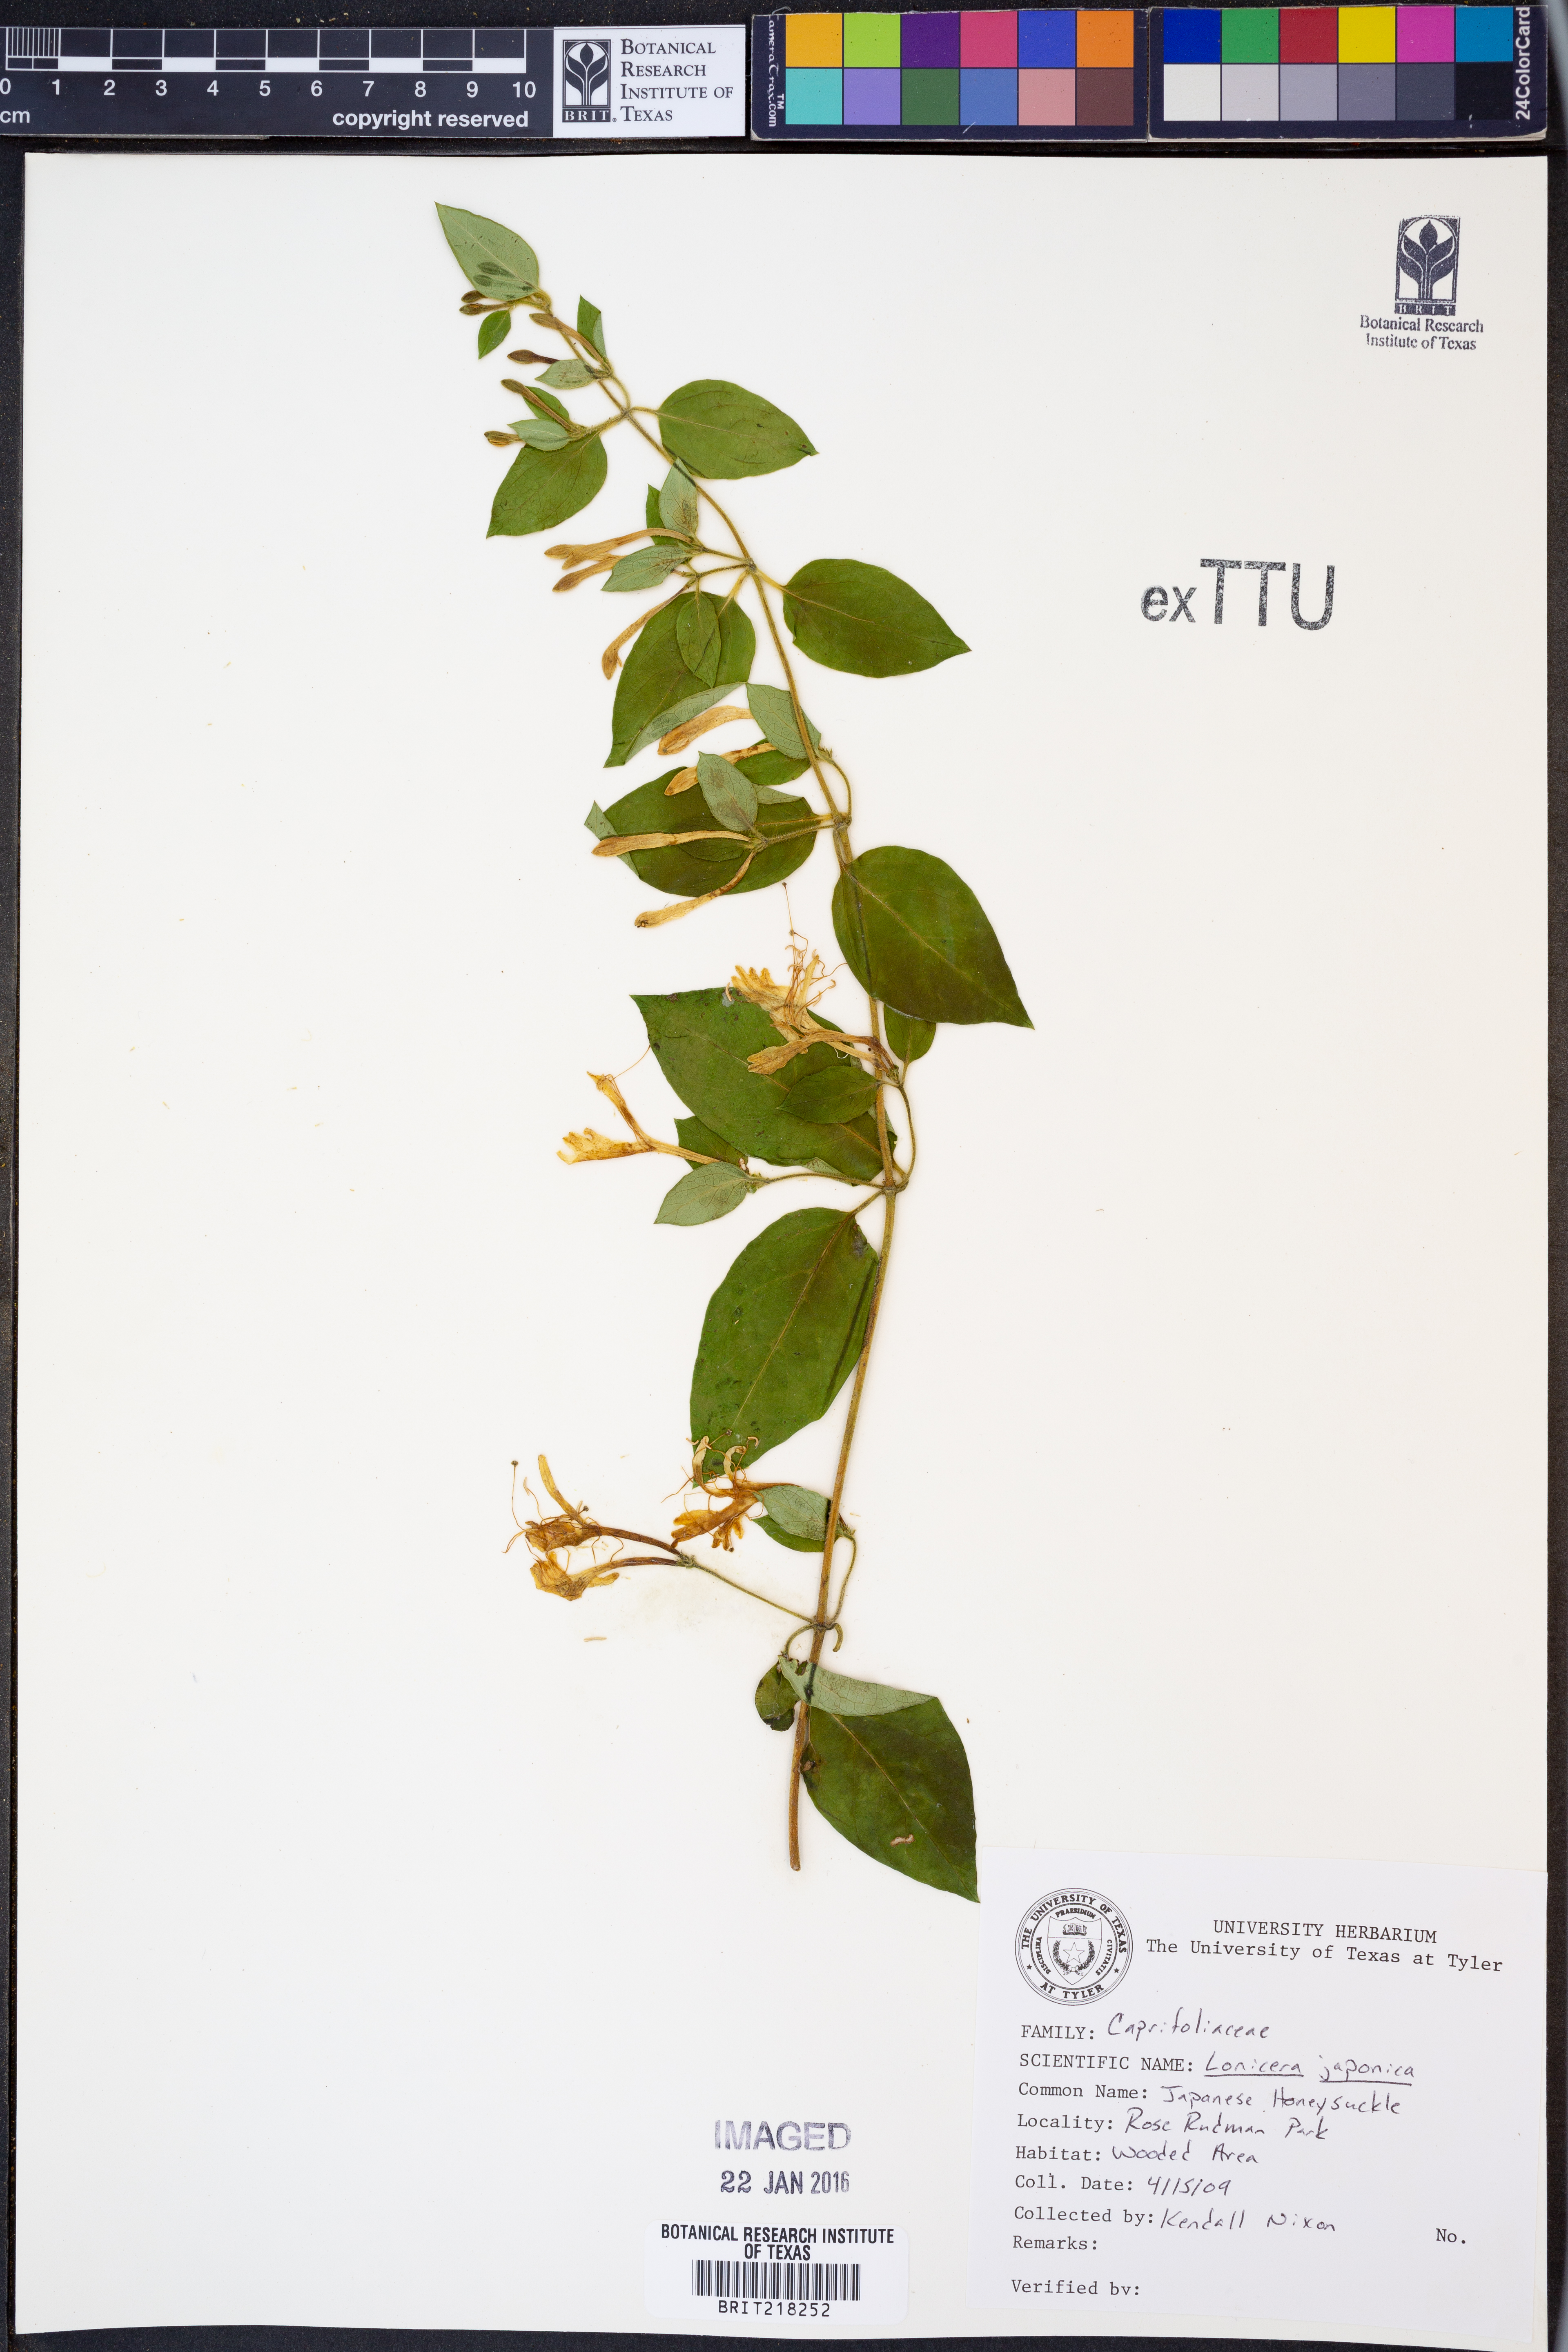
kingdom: Plantae
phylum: Tracheophyta
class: Magnoliopsida
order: Dipsacales
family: Caprifoliaceae
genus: Lonicera
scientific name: Lonicera japonica
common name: Japanese honeysuckle
